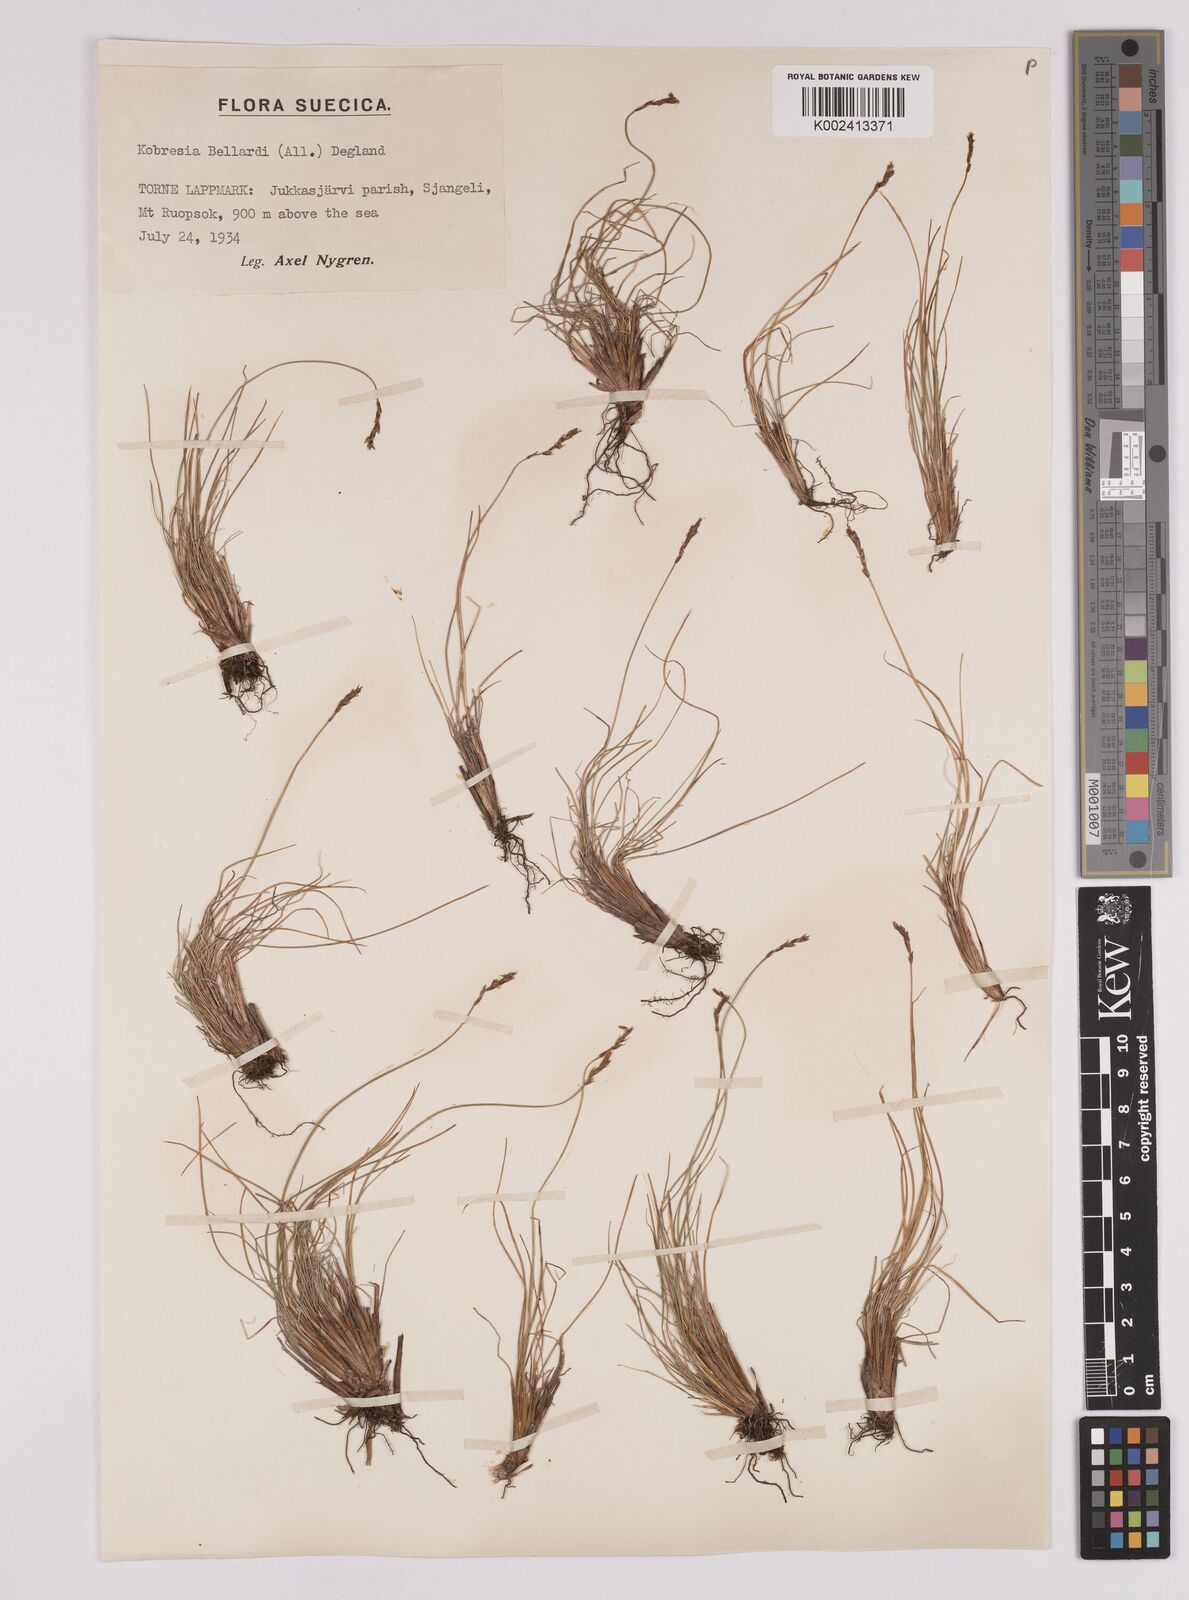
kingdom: Plantae
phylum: Tracheophyta
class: Liliopsida
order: Poales
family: Cyperaceae
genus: Carex
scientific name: Carex myosuroides
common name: Bellard's bog sedge
